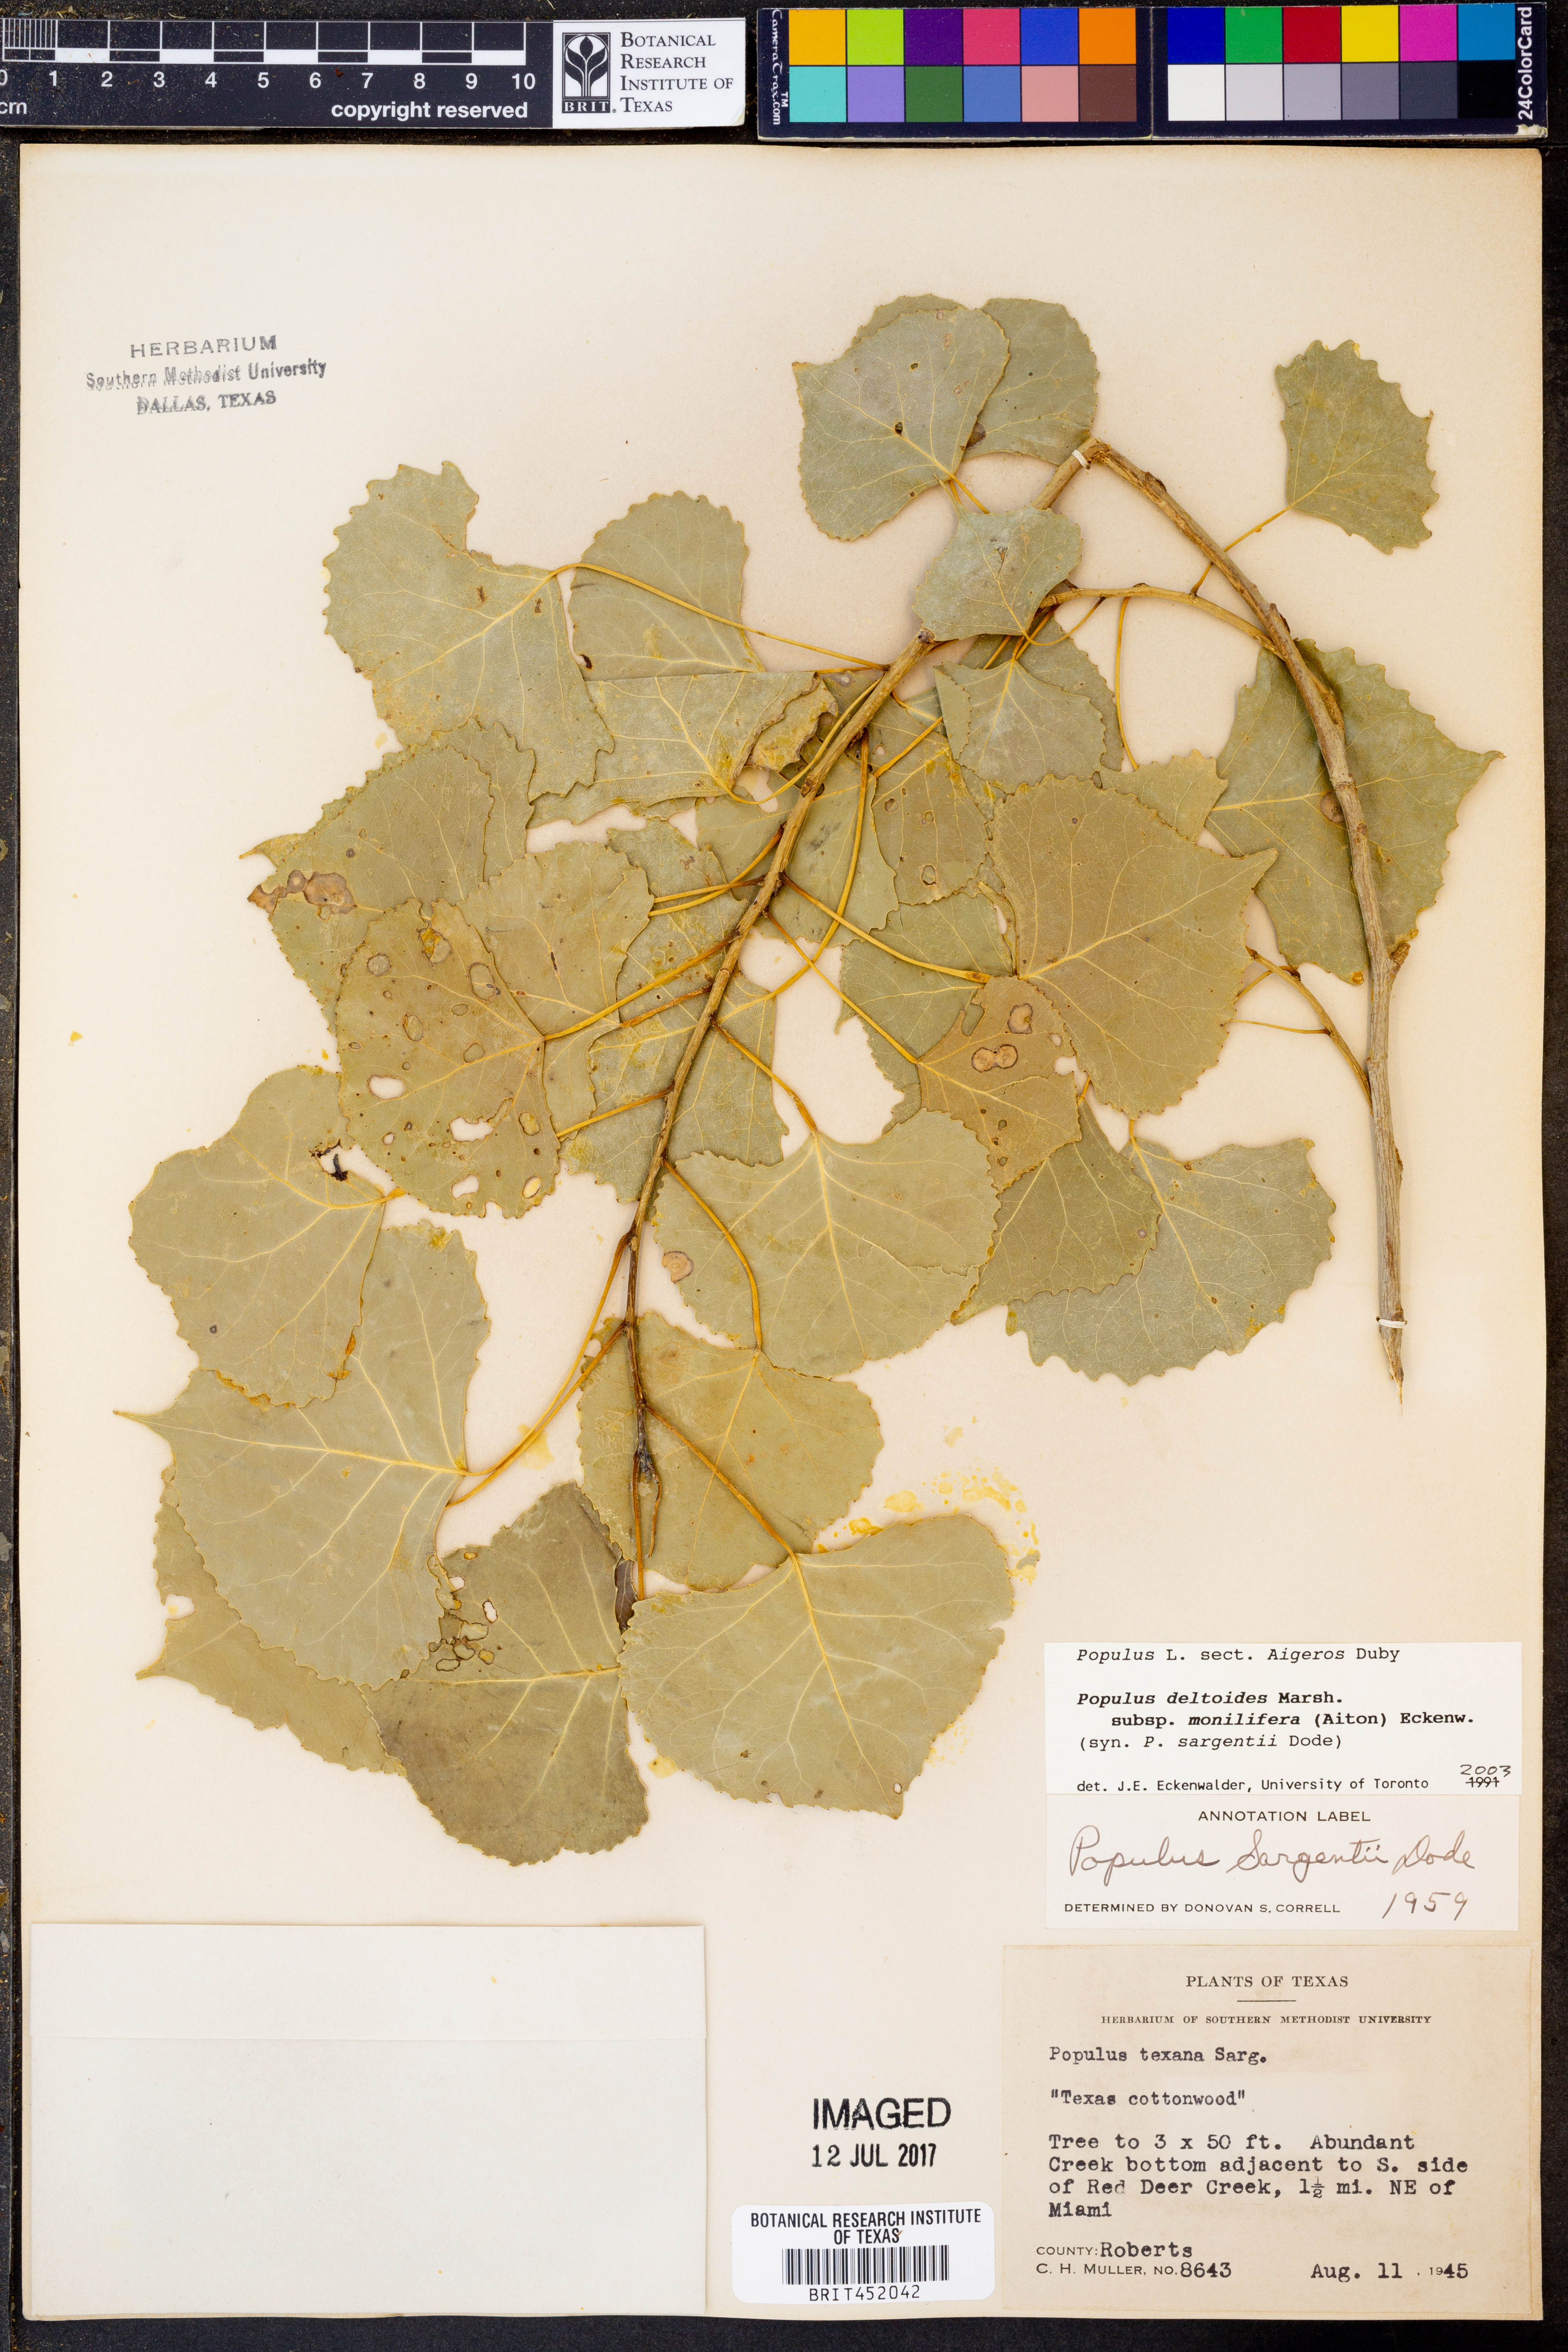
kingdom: Plantae
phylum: Tracheophyta
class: Magnoliopsida
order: Malpighiales
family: Salicaceae
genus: Populus
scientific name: Populus deltoides
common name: Eastern cottonwood
